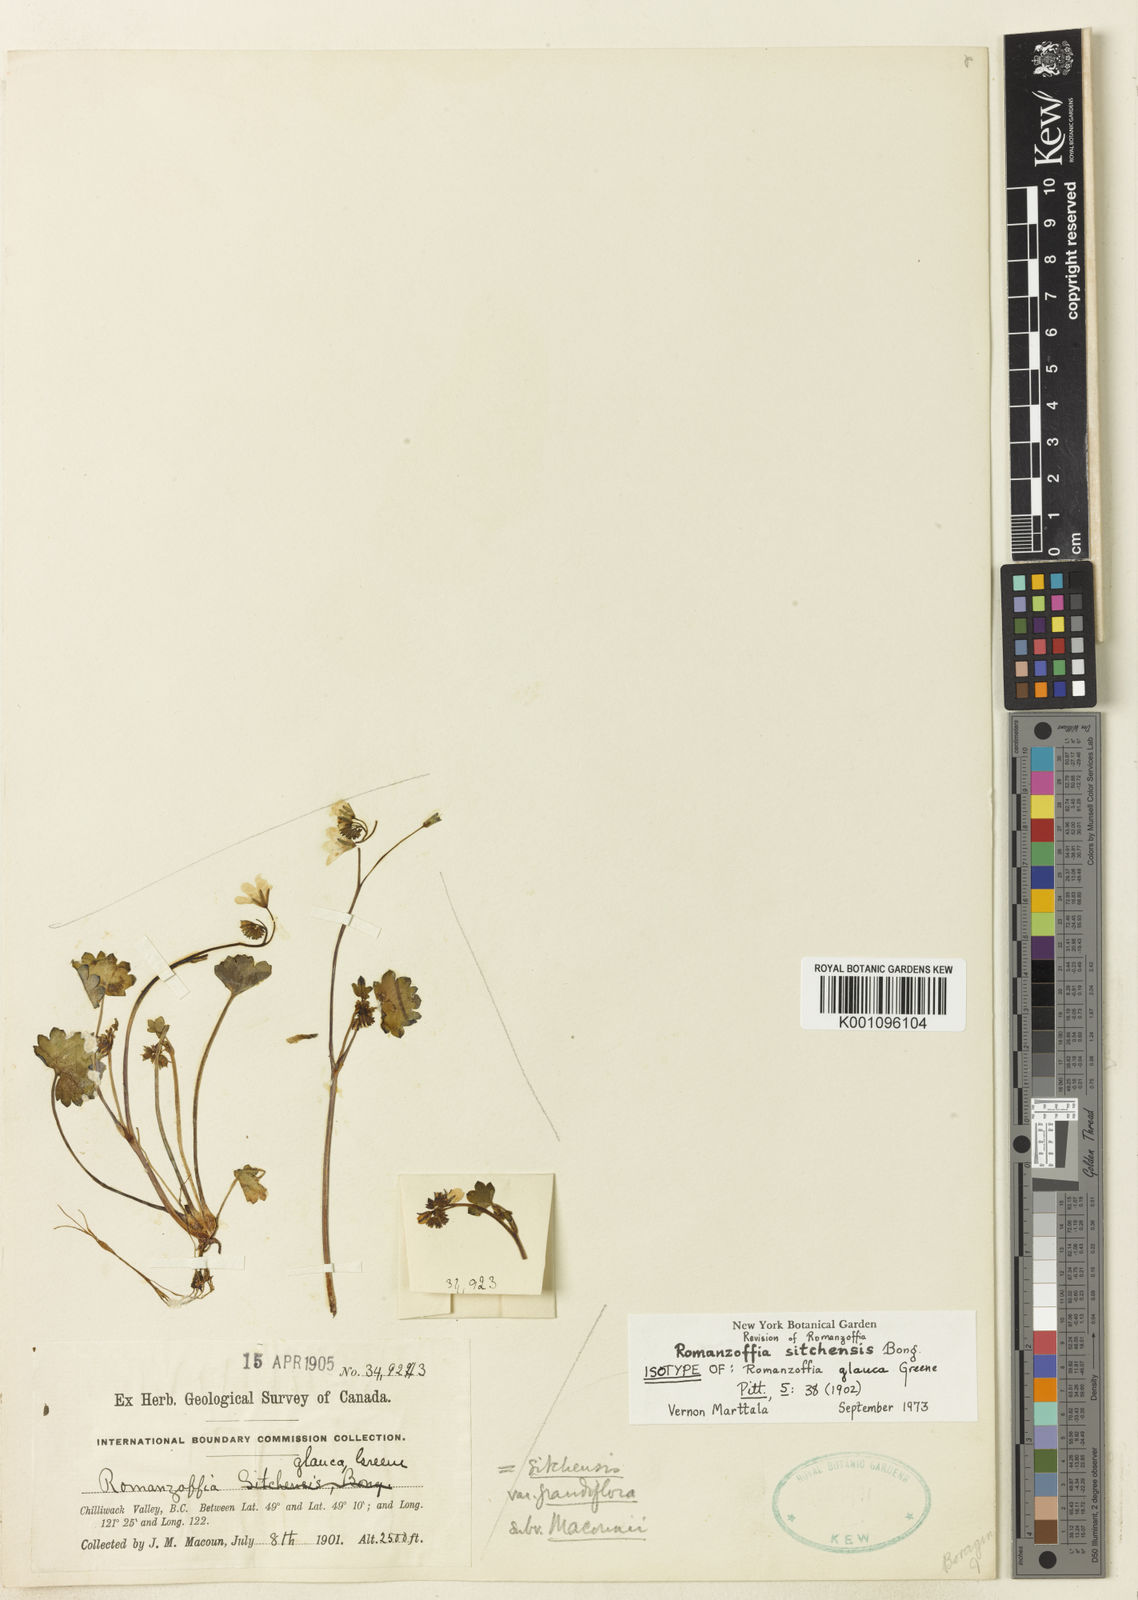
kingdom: Plantae
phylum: Tracheophyta
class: Magnoliopsida
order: Boraginales
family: Hydrophyllaceae
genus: Romanzoffia
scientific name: Romanzoffia sitchensis
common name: Sitka mistmaid
